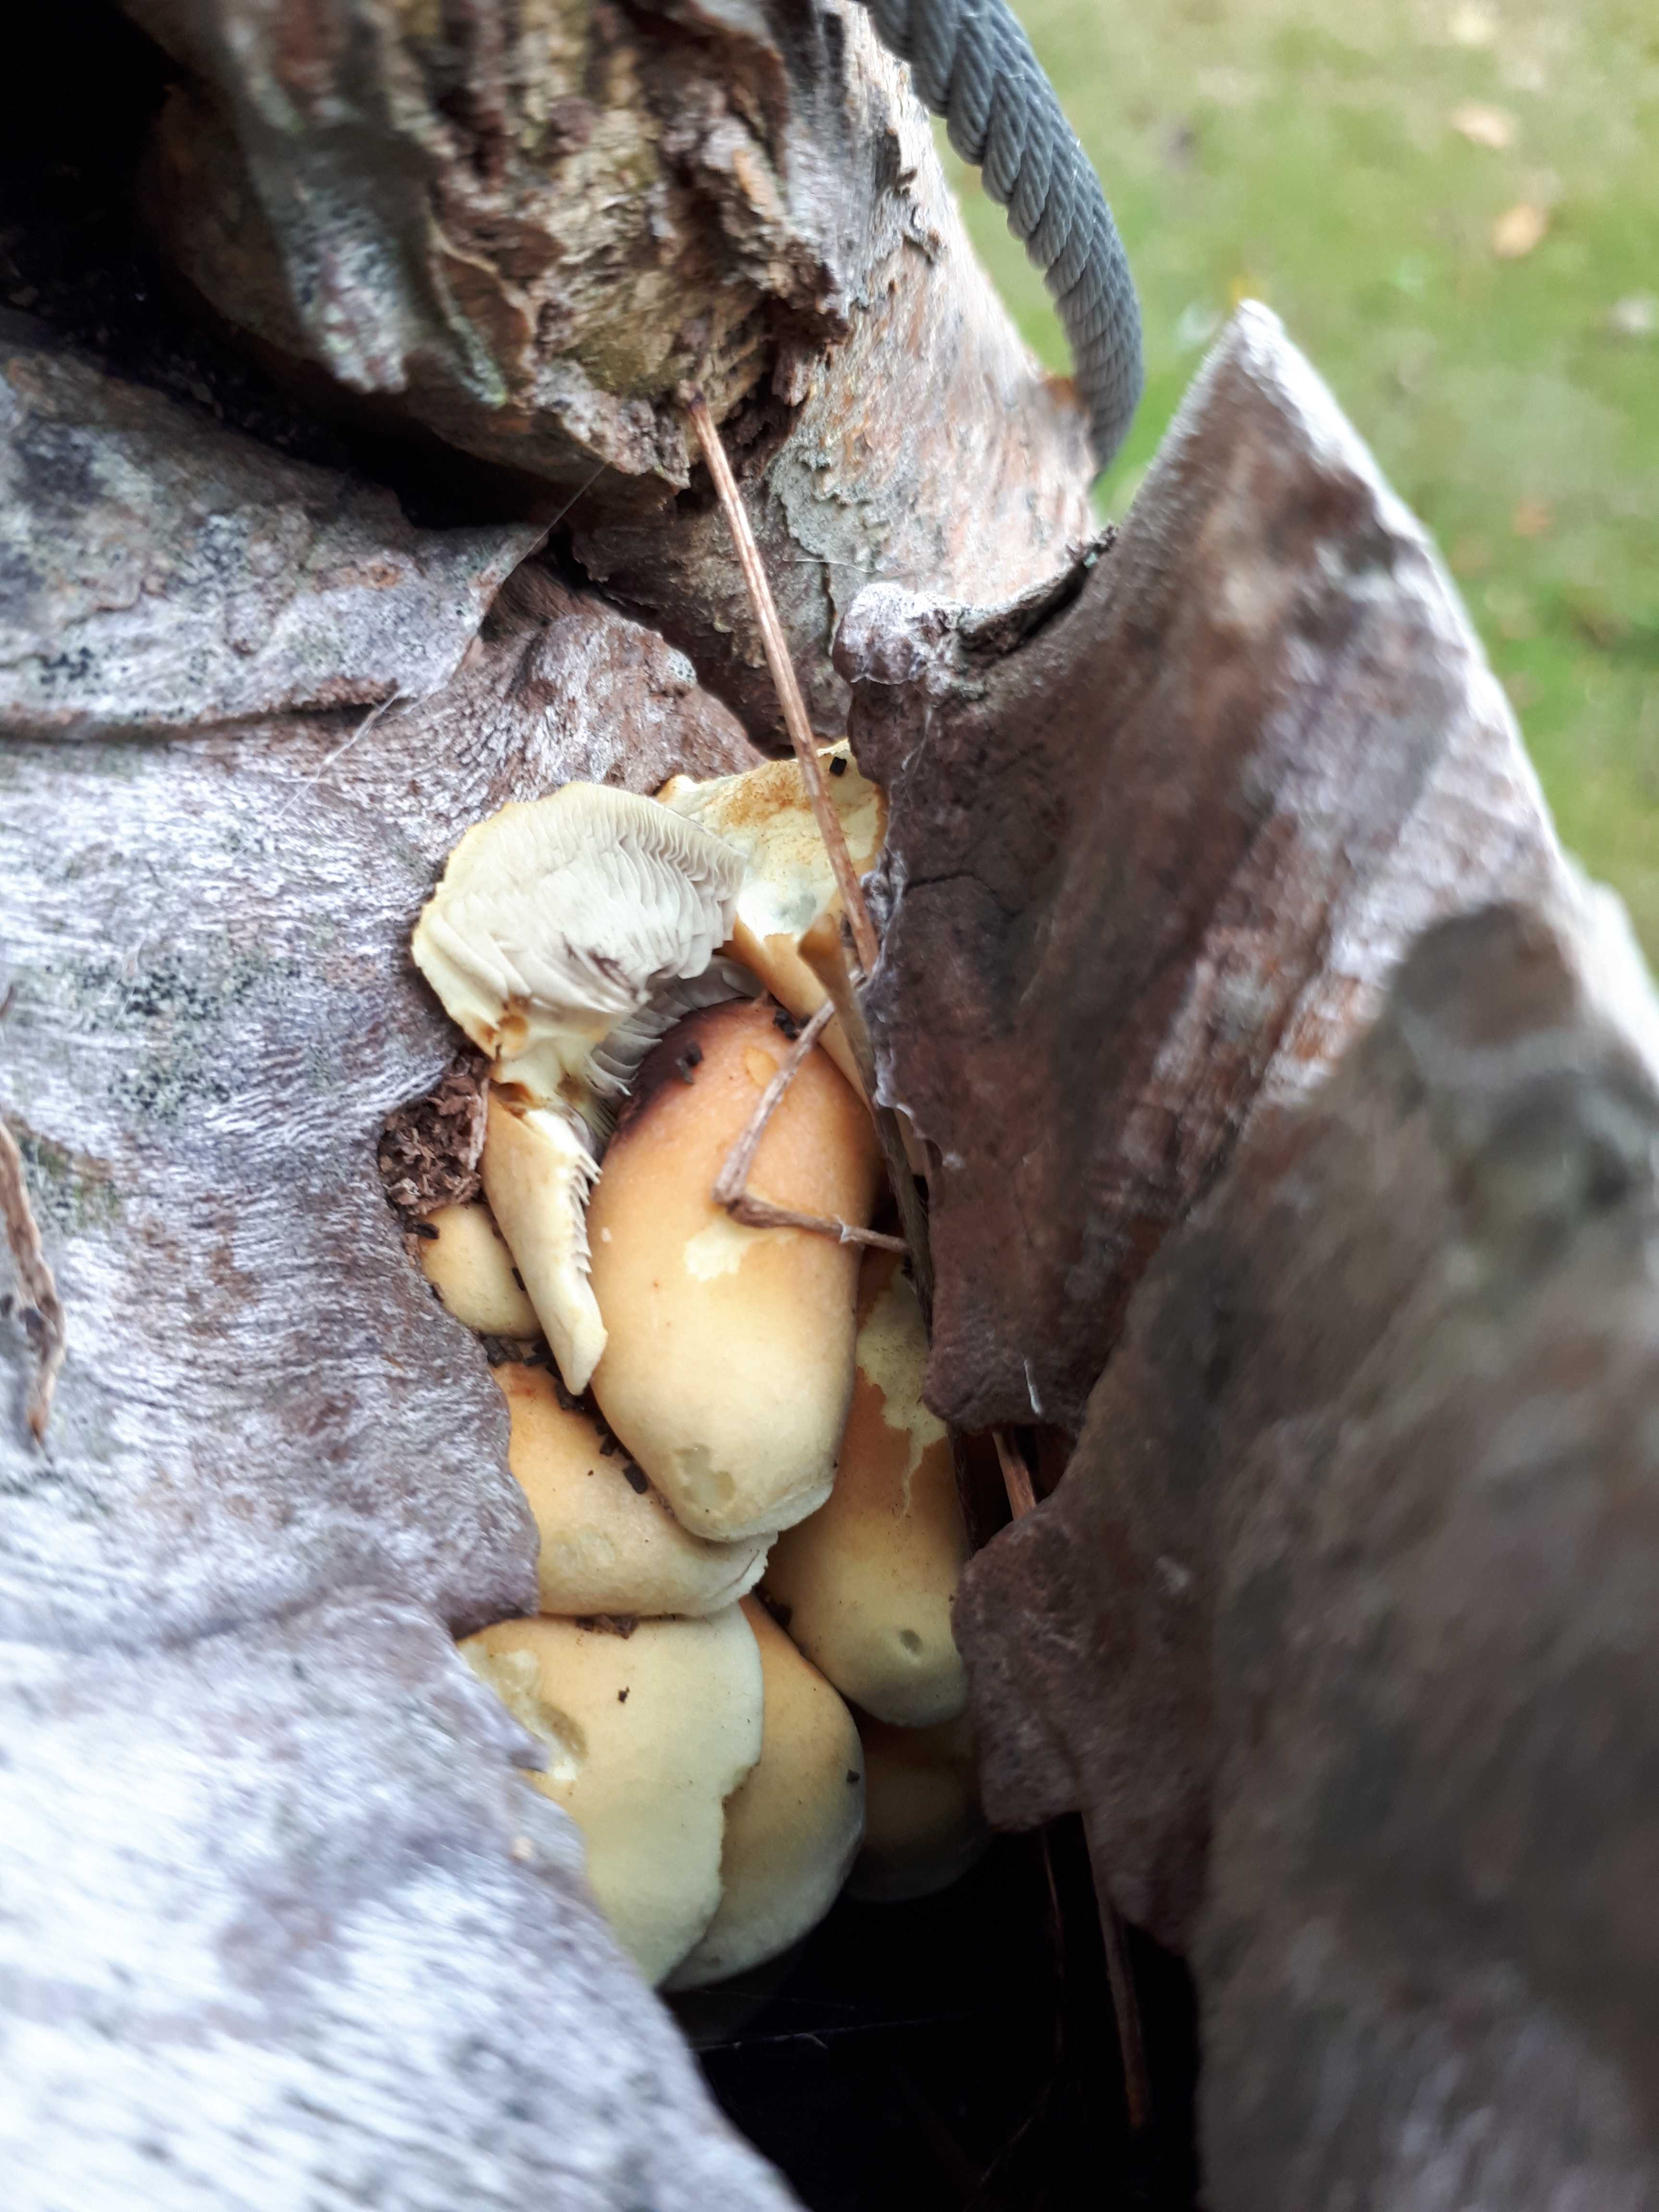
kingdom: Fungi
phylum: Basidiomycota
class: Agaricomycetes
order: Agaricales
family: Strophariaceae
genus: Hypholoma
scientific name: Hypholoma fasciculare
